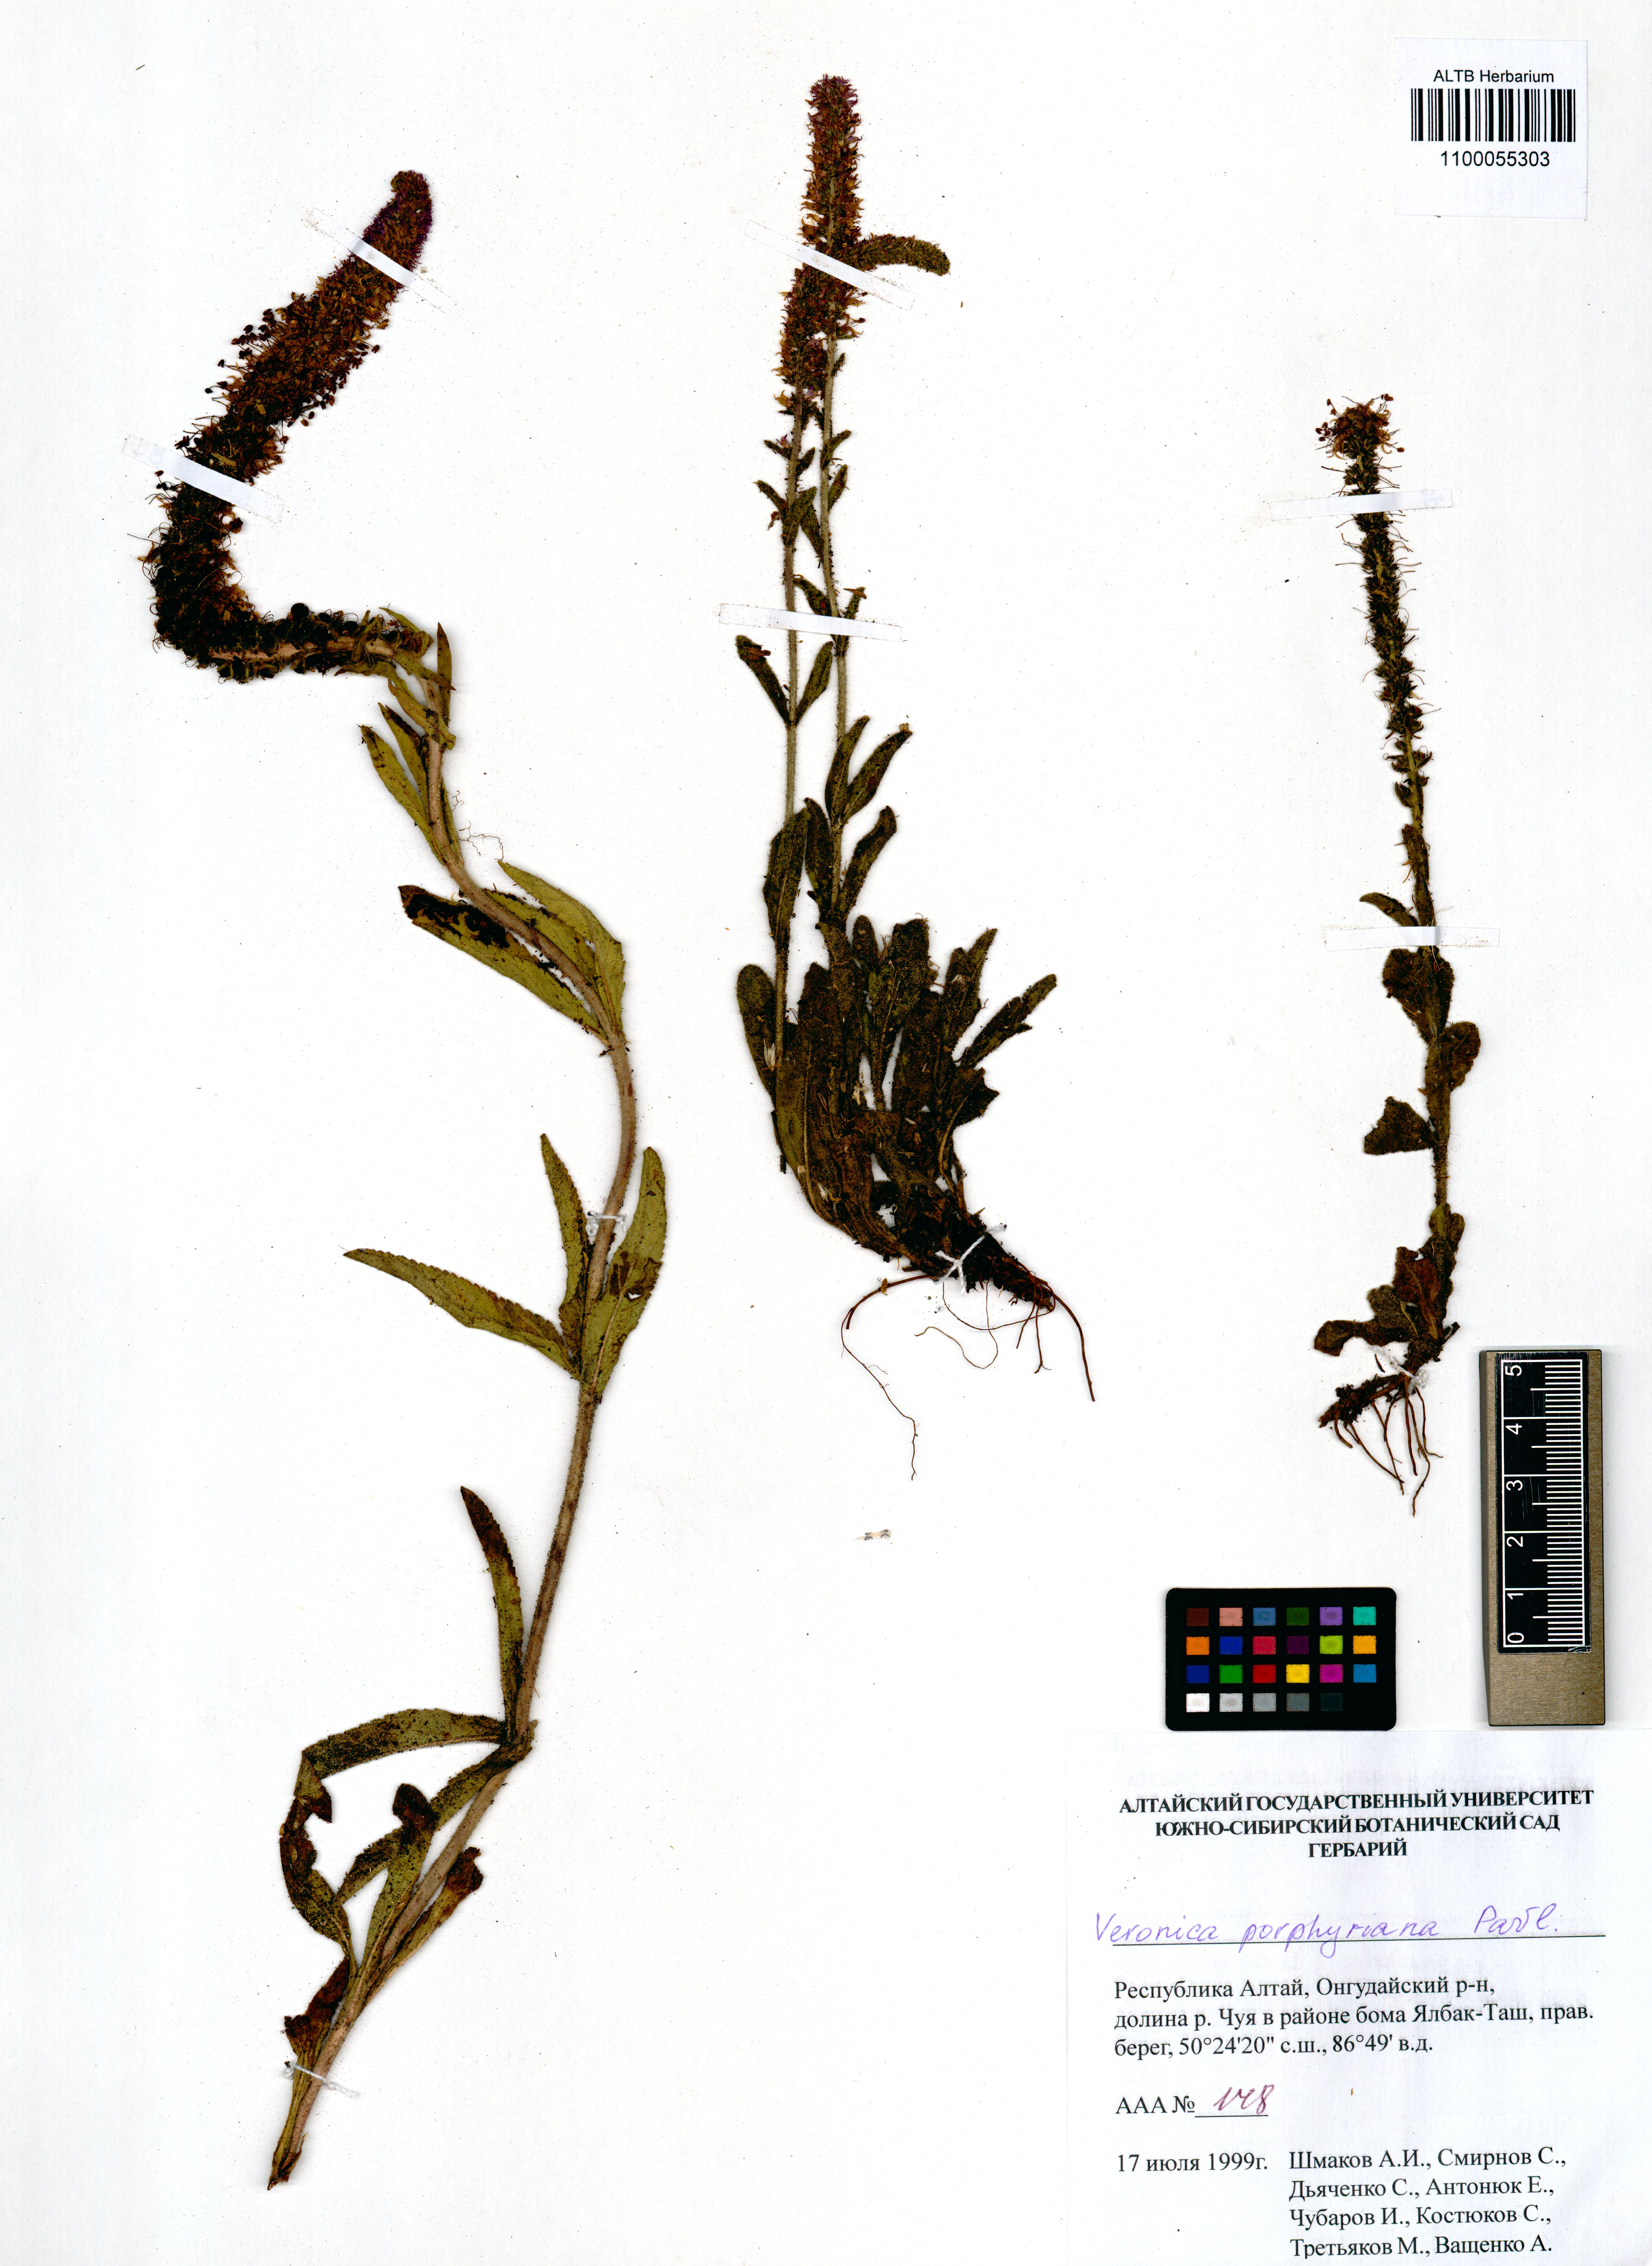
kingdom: Plantae
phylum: Tracheophyta
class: Magnoliopsida
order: Lamiales
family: Plantaginaceae
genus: Veronica
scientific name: Veronica porphyriana
